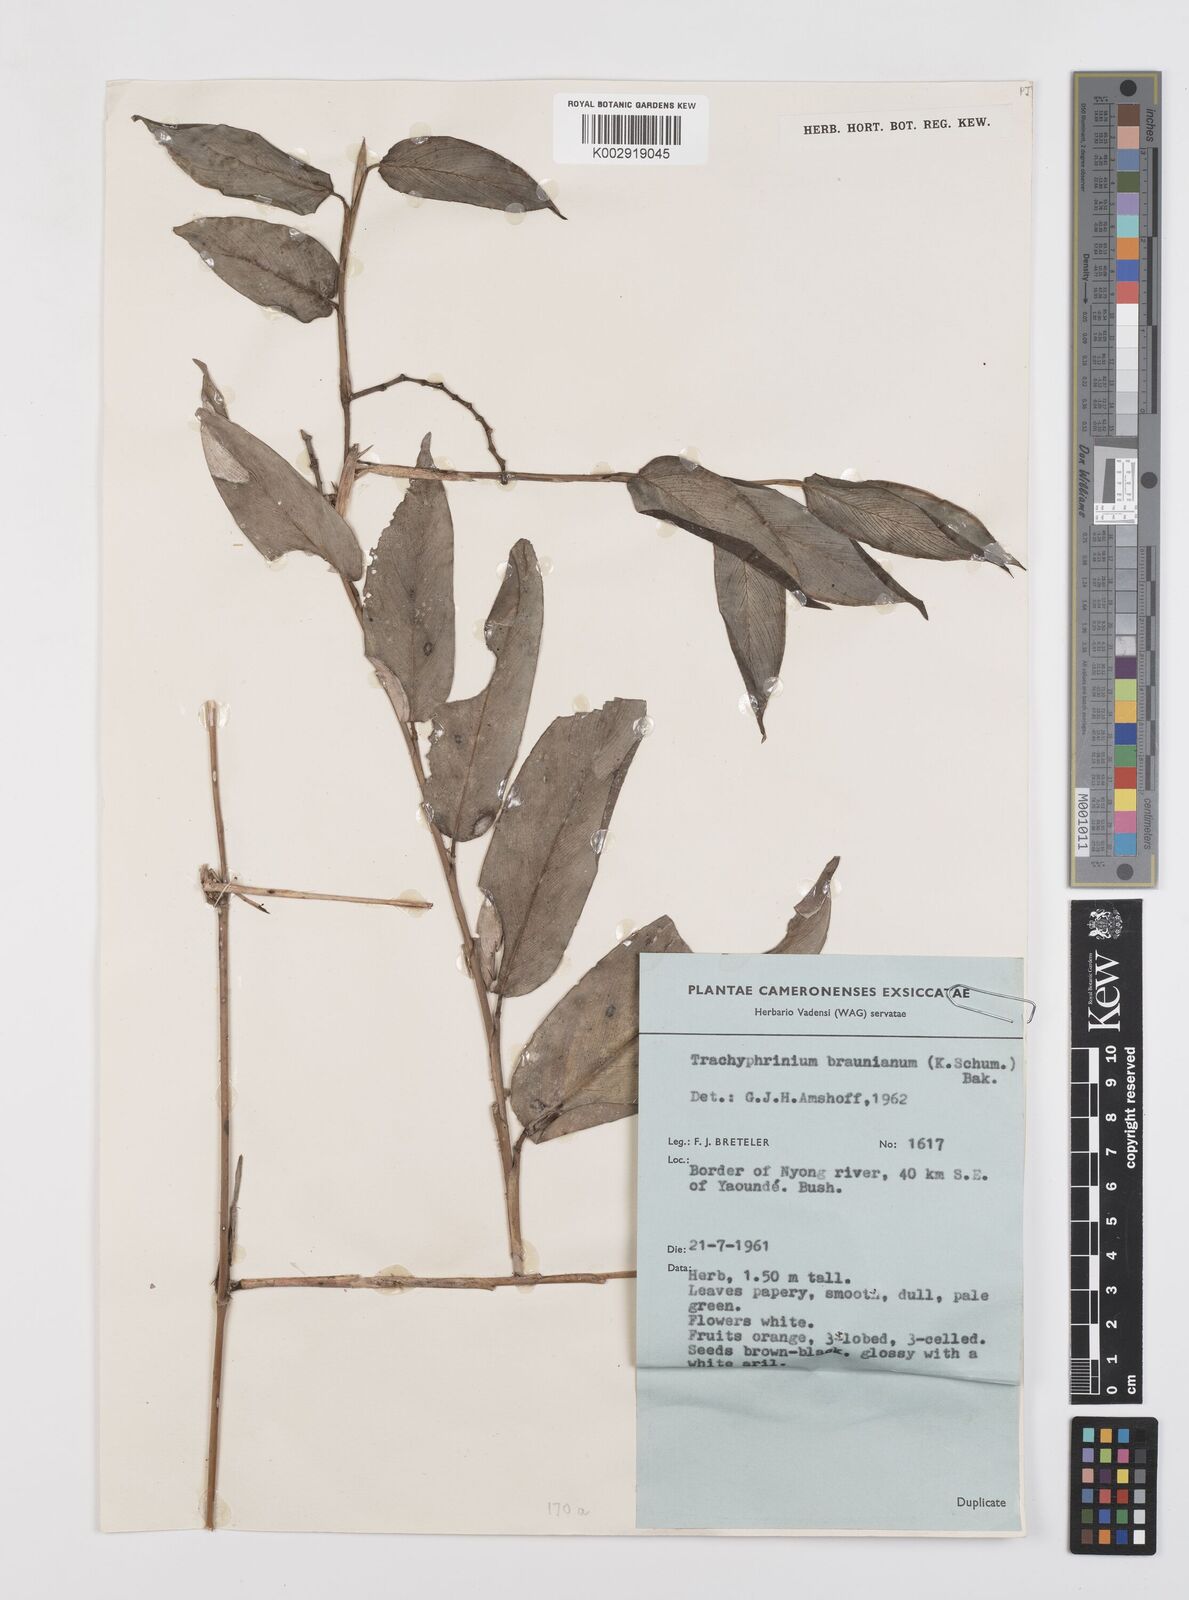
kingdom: Plantae
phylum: Tracheophyta
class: Liliopsida
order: Zingiberales
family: Marantaceae
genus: Trachyphrynium
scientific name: Trachyphrynium braunianum
